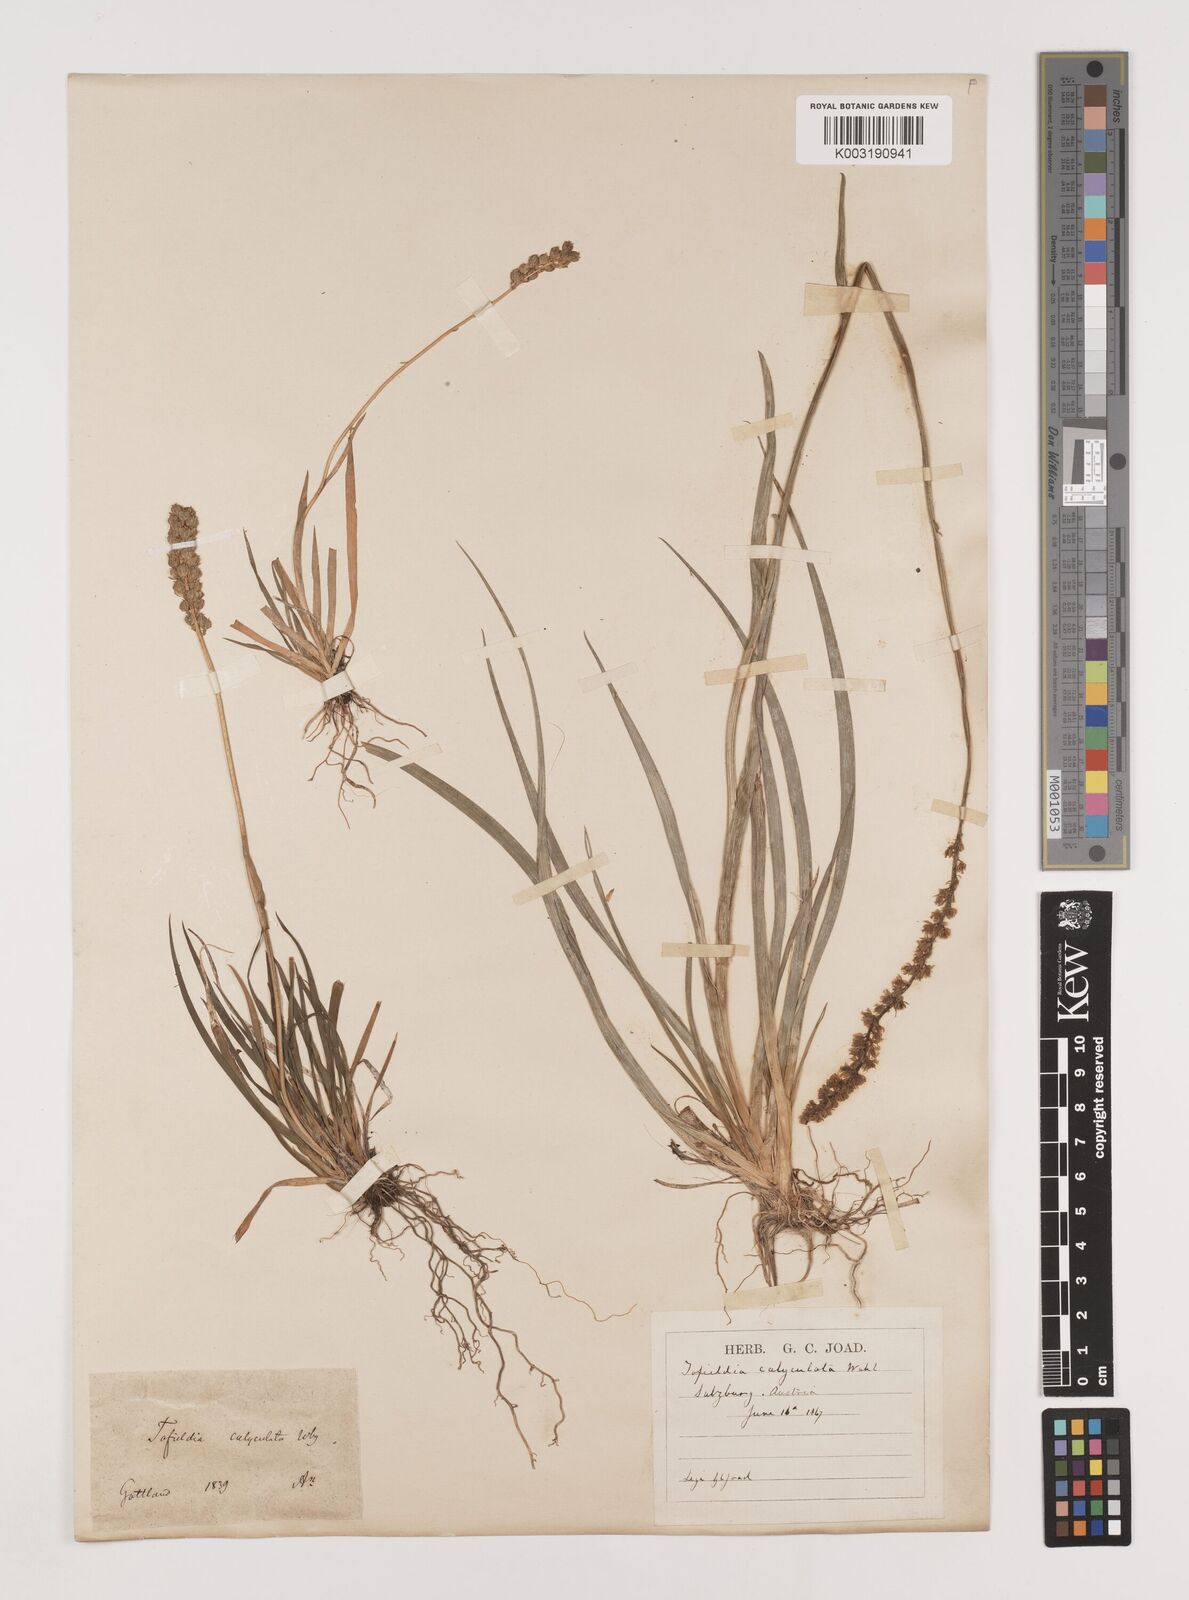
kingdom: Plantae
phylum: Tracheophyta
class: Liliopsida
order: Alismatales
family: Tofieldiaceae
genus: Tofieldia
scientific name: Tofieldia calyculata
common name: German-asphodel
